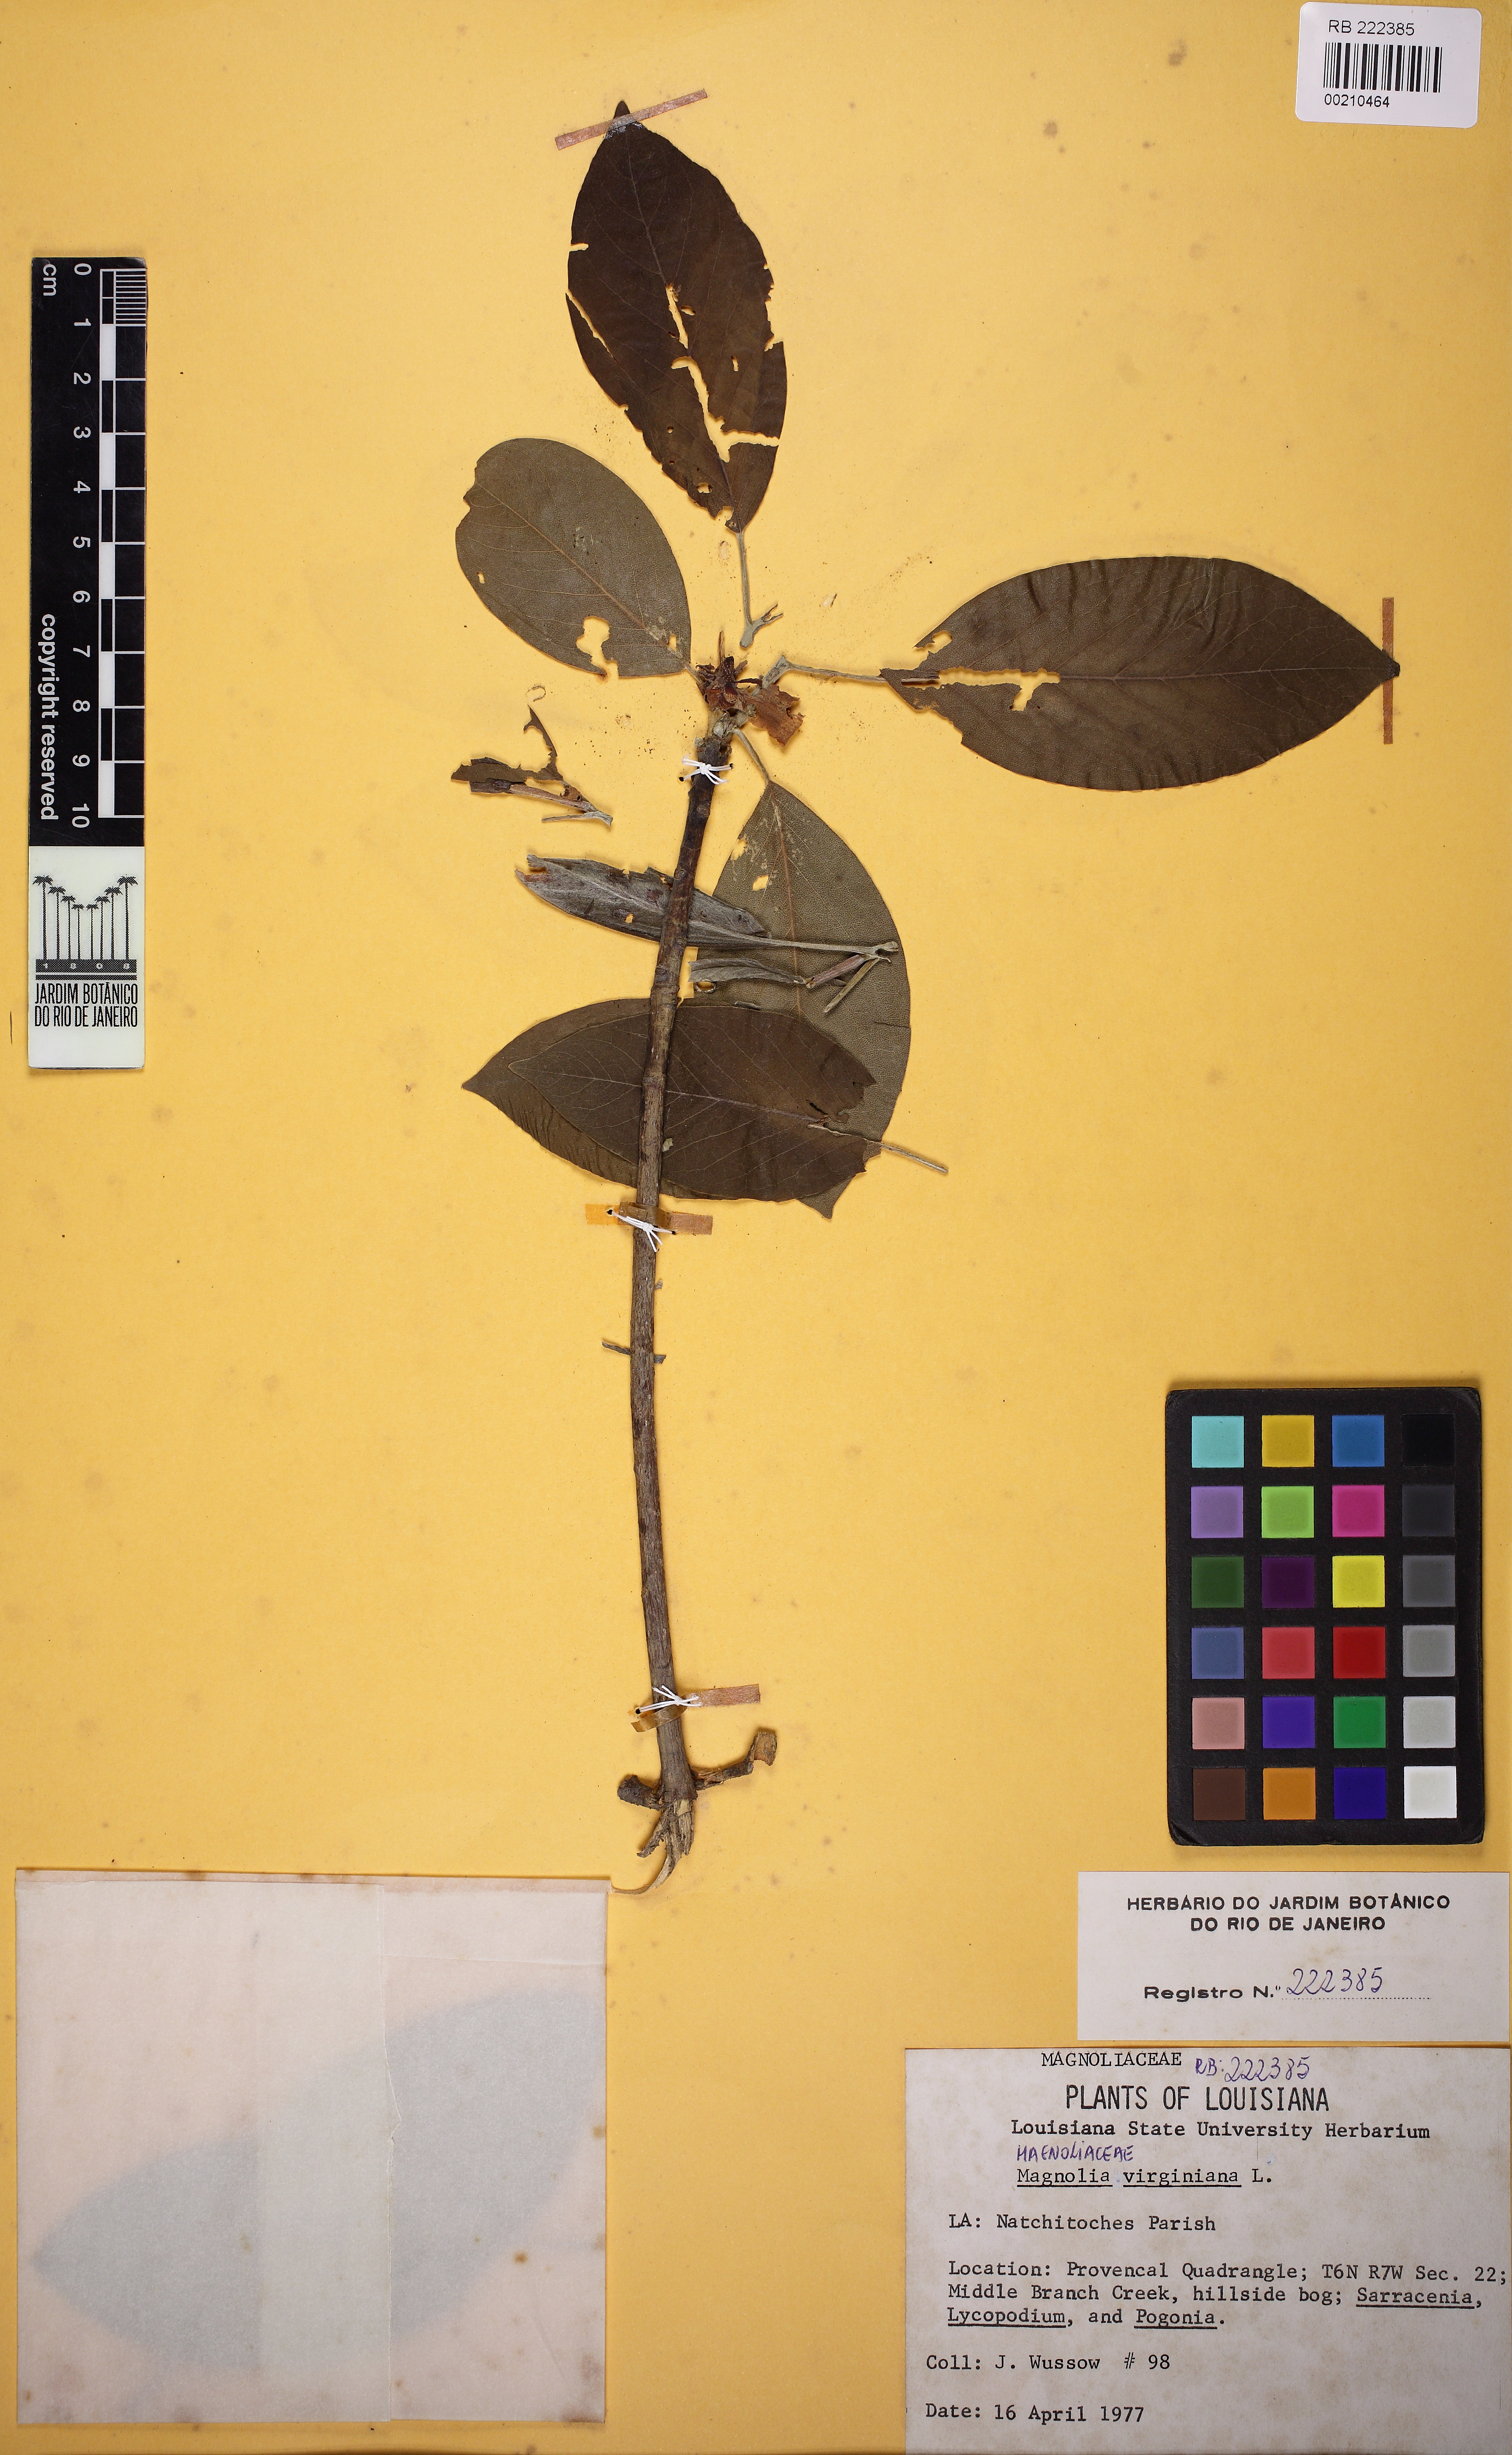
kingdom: Plantae
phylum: Tracheophyta
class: Magnoliopsida
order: Magnoliales
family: Magnoliaceae
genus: Magnolia
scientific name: Magnolia virginiana
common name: Swamp bay
